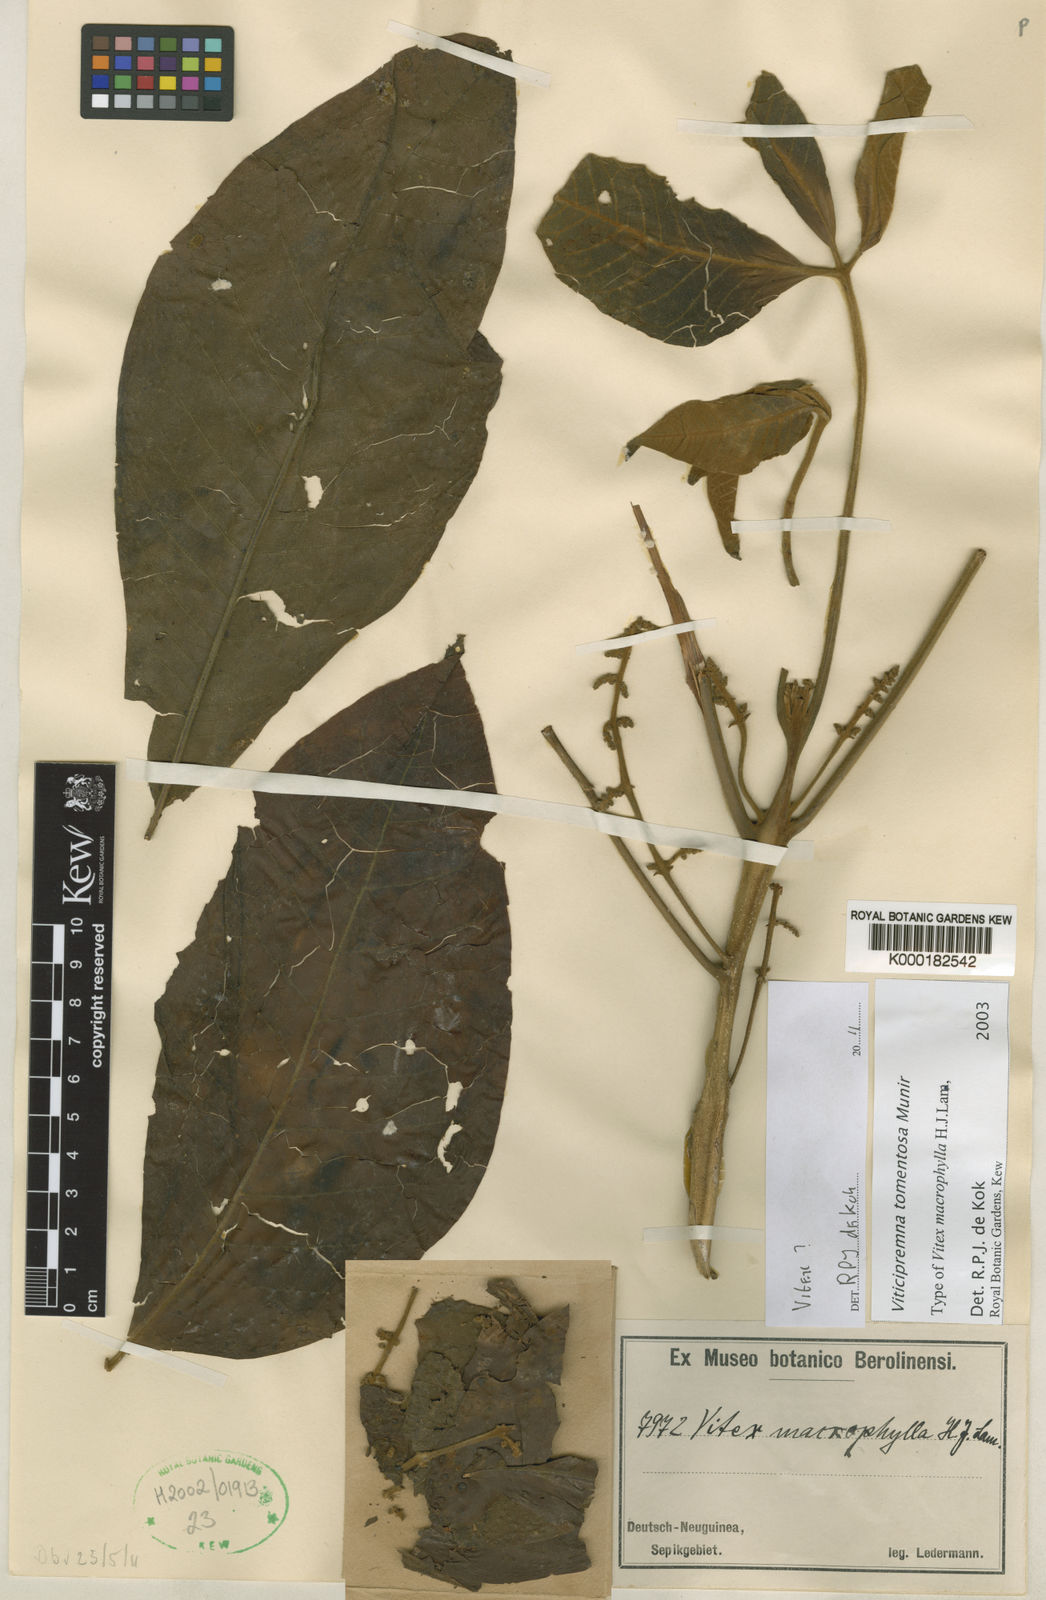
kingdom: Plantae
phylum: Tracheophyta
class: Magnoliopsida
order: Lamiales
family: Lamiaceae
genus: Vitex
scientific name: Vitex macrofoliola
